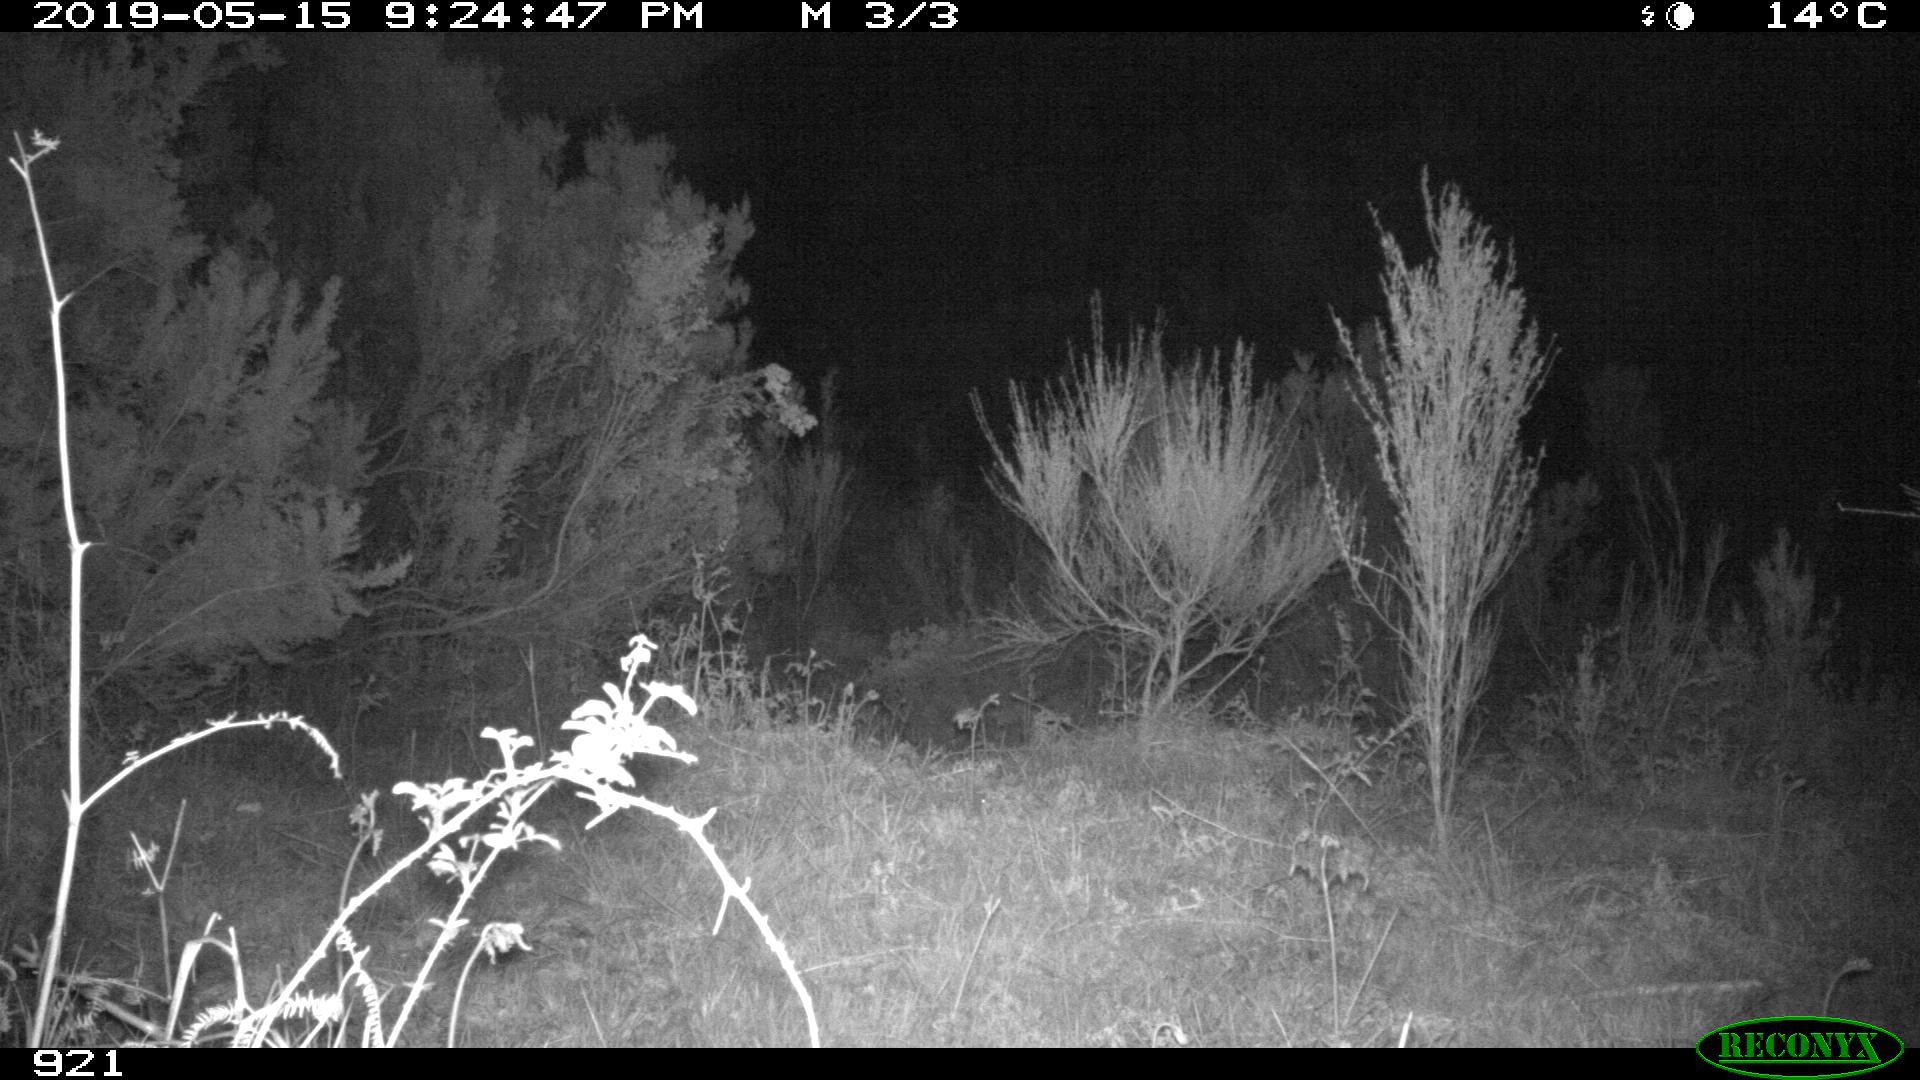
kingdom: Animalia
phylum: Chordata
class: Mammalia
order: Perissodactyla
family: Equidae
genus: Equus
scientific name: Equus caballus
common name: Horse
